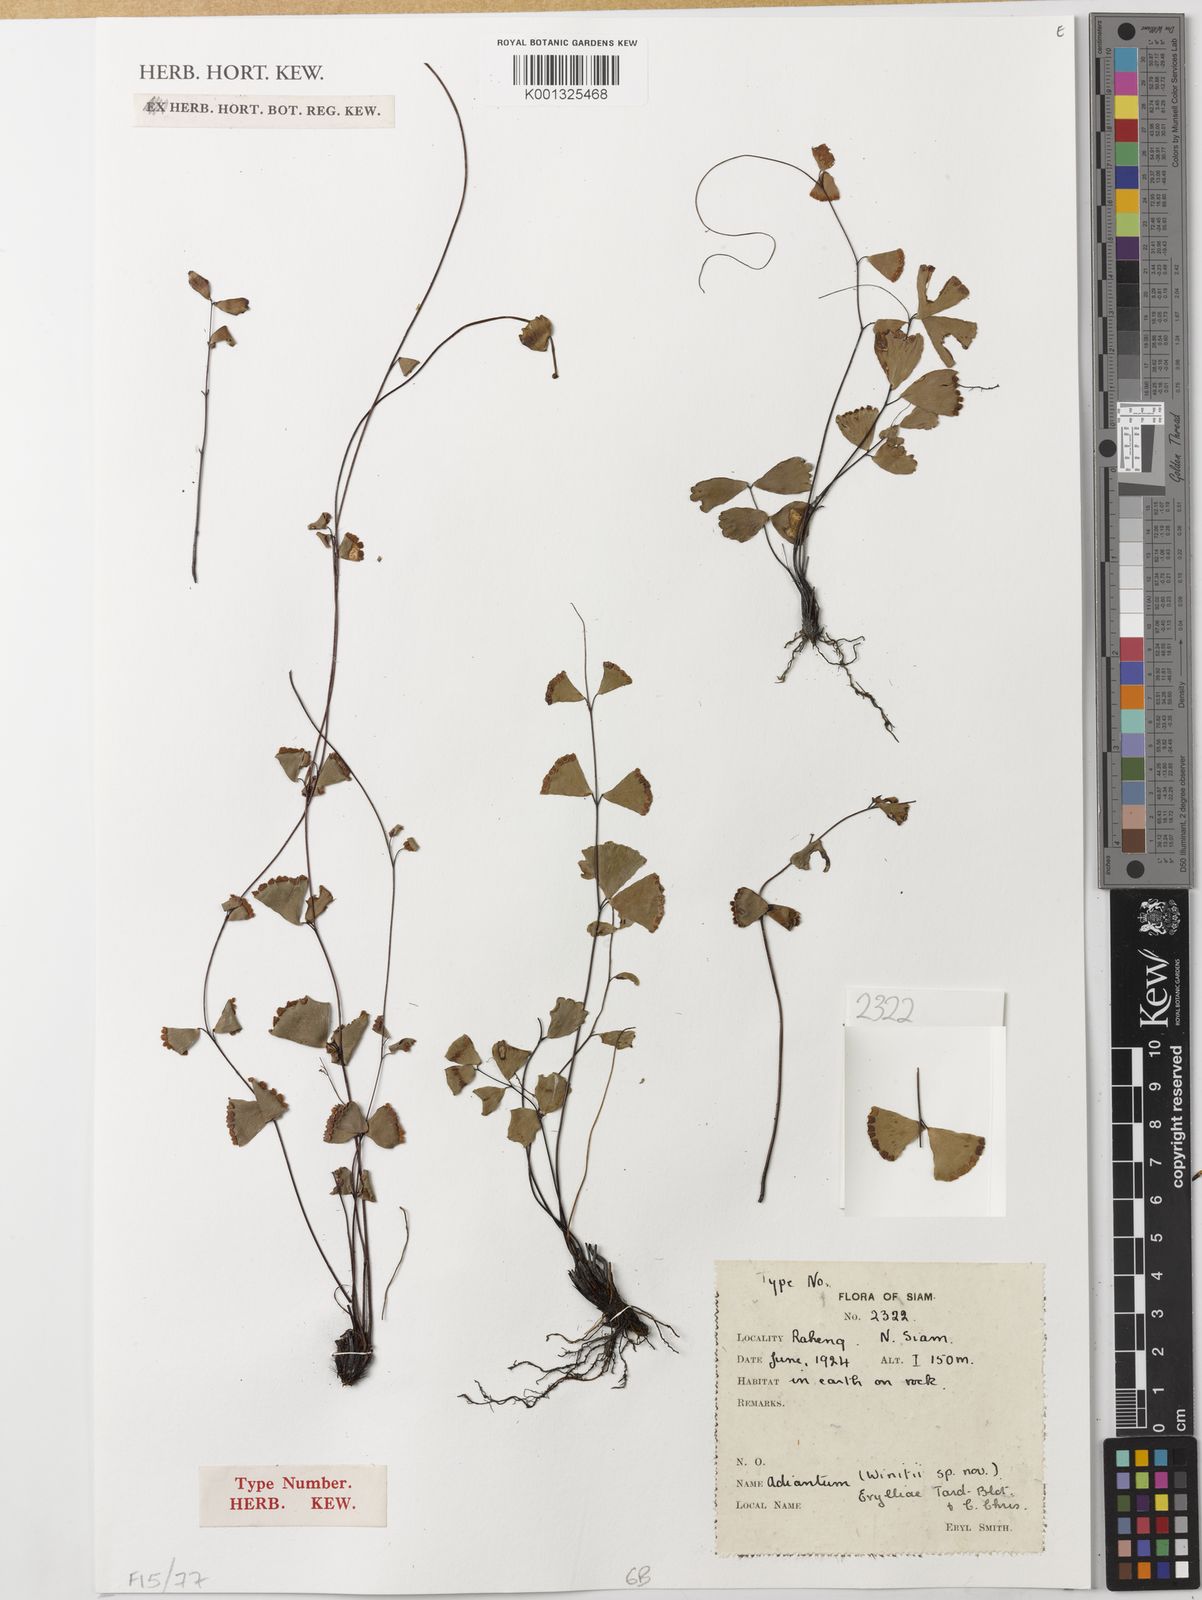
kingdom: Plantae
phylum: Tracheophyta
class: Polypodiopsida
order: Polypodiales
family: Pteridaceae
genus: Adiantum
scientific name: Adiantum erylliae
